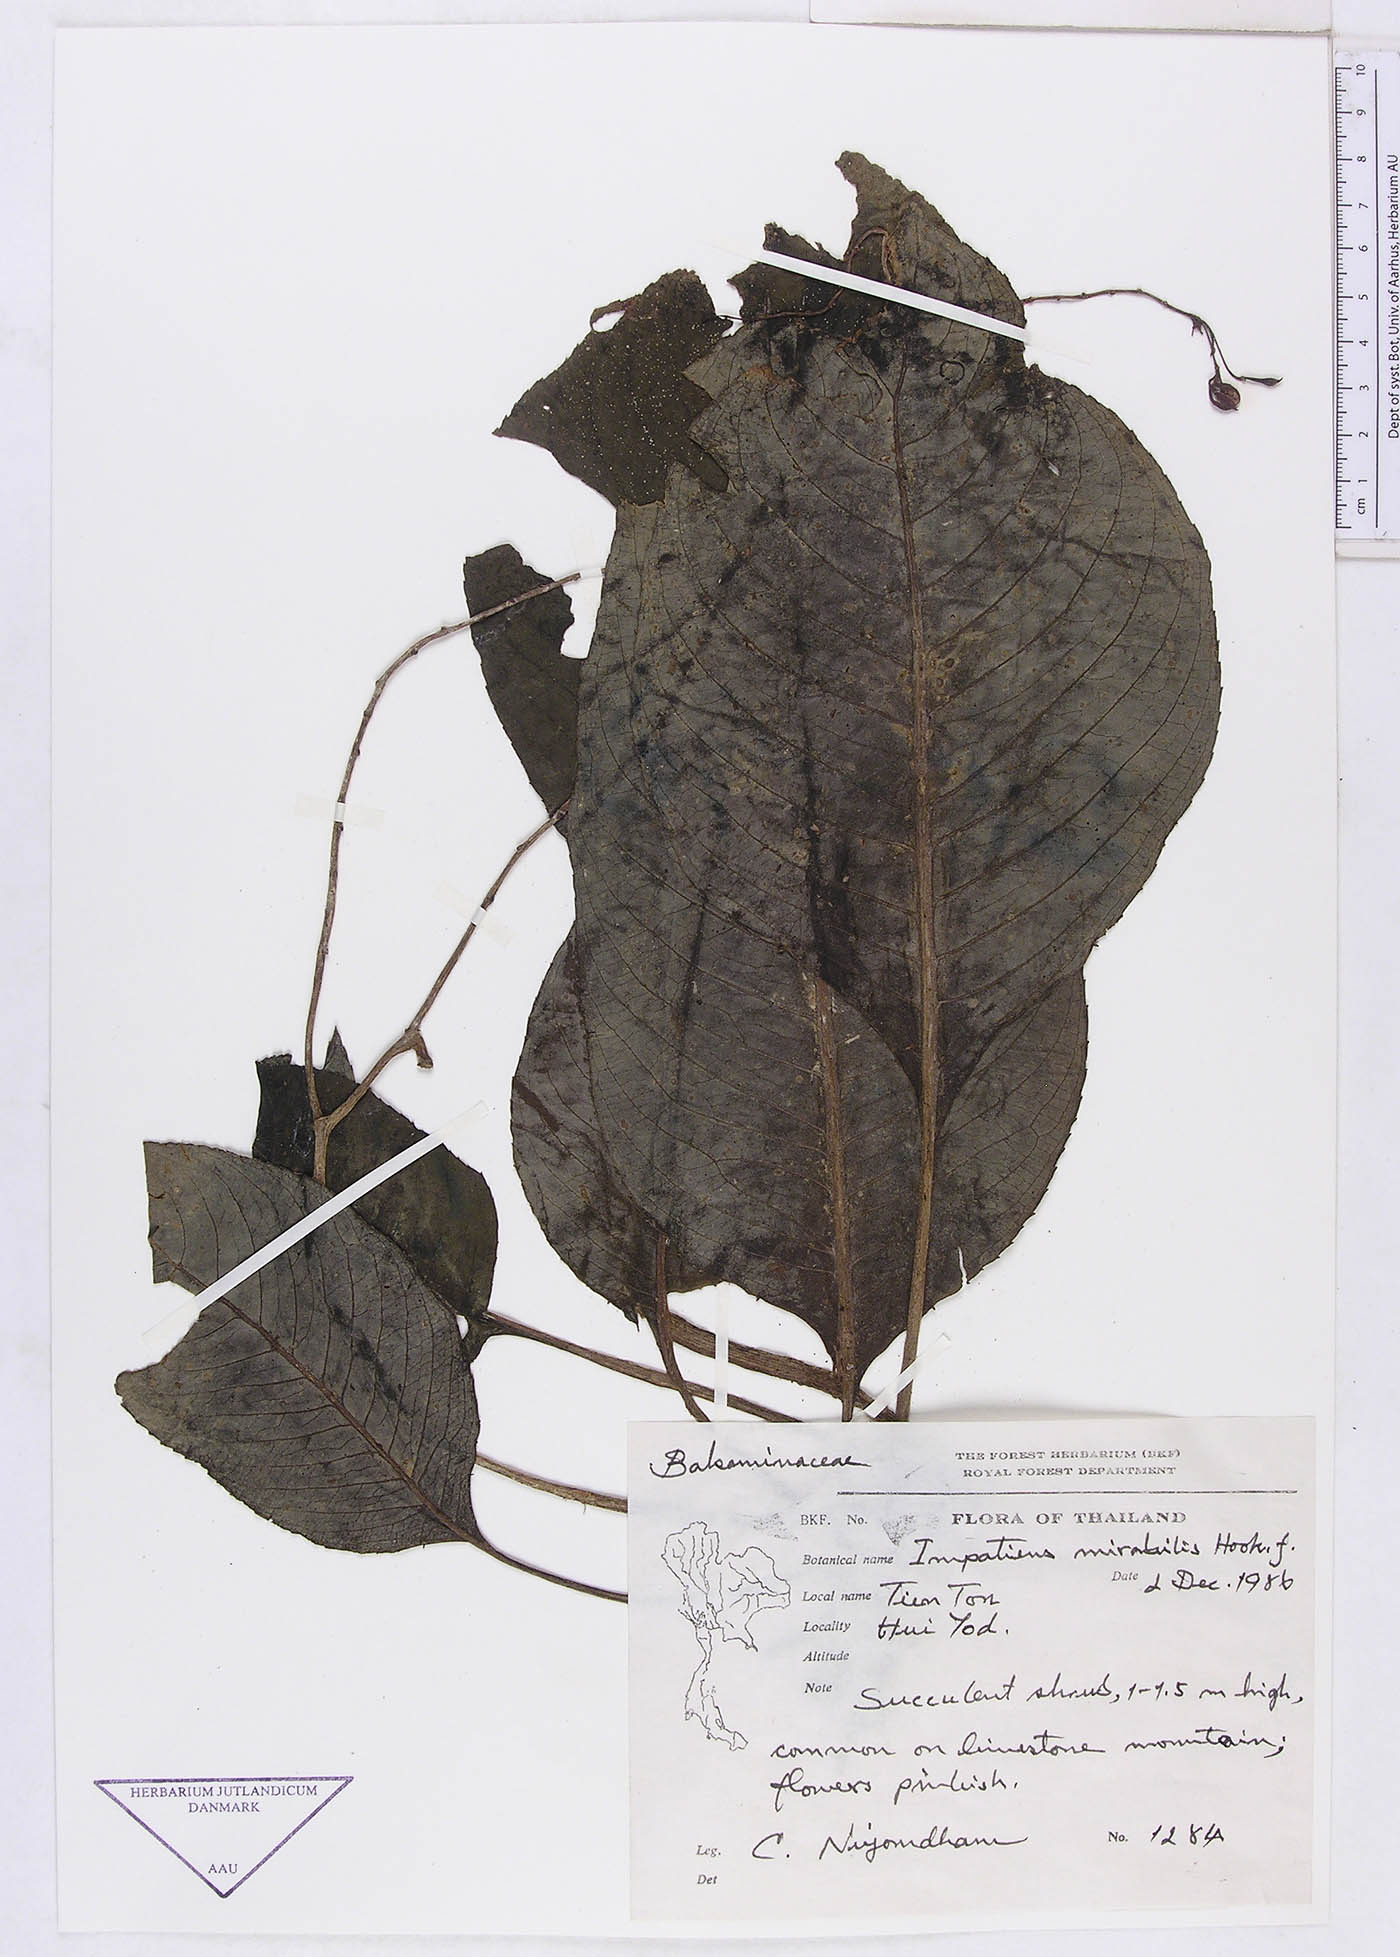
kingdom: Plantae
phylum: Tracheophyta
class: Magnoliopsida
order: Ericales
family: Balsaminaceae
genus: Impatiens
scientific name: Impatiens mirabilis
